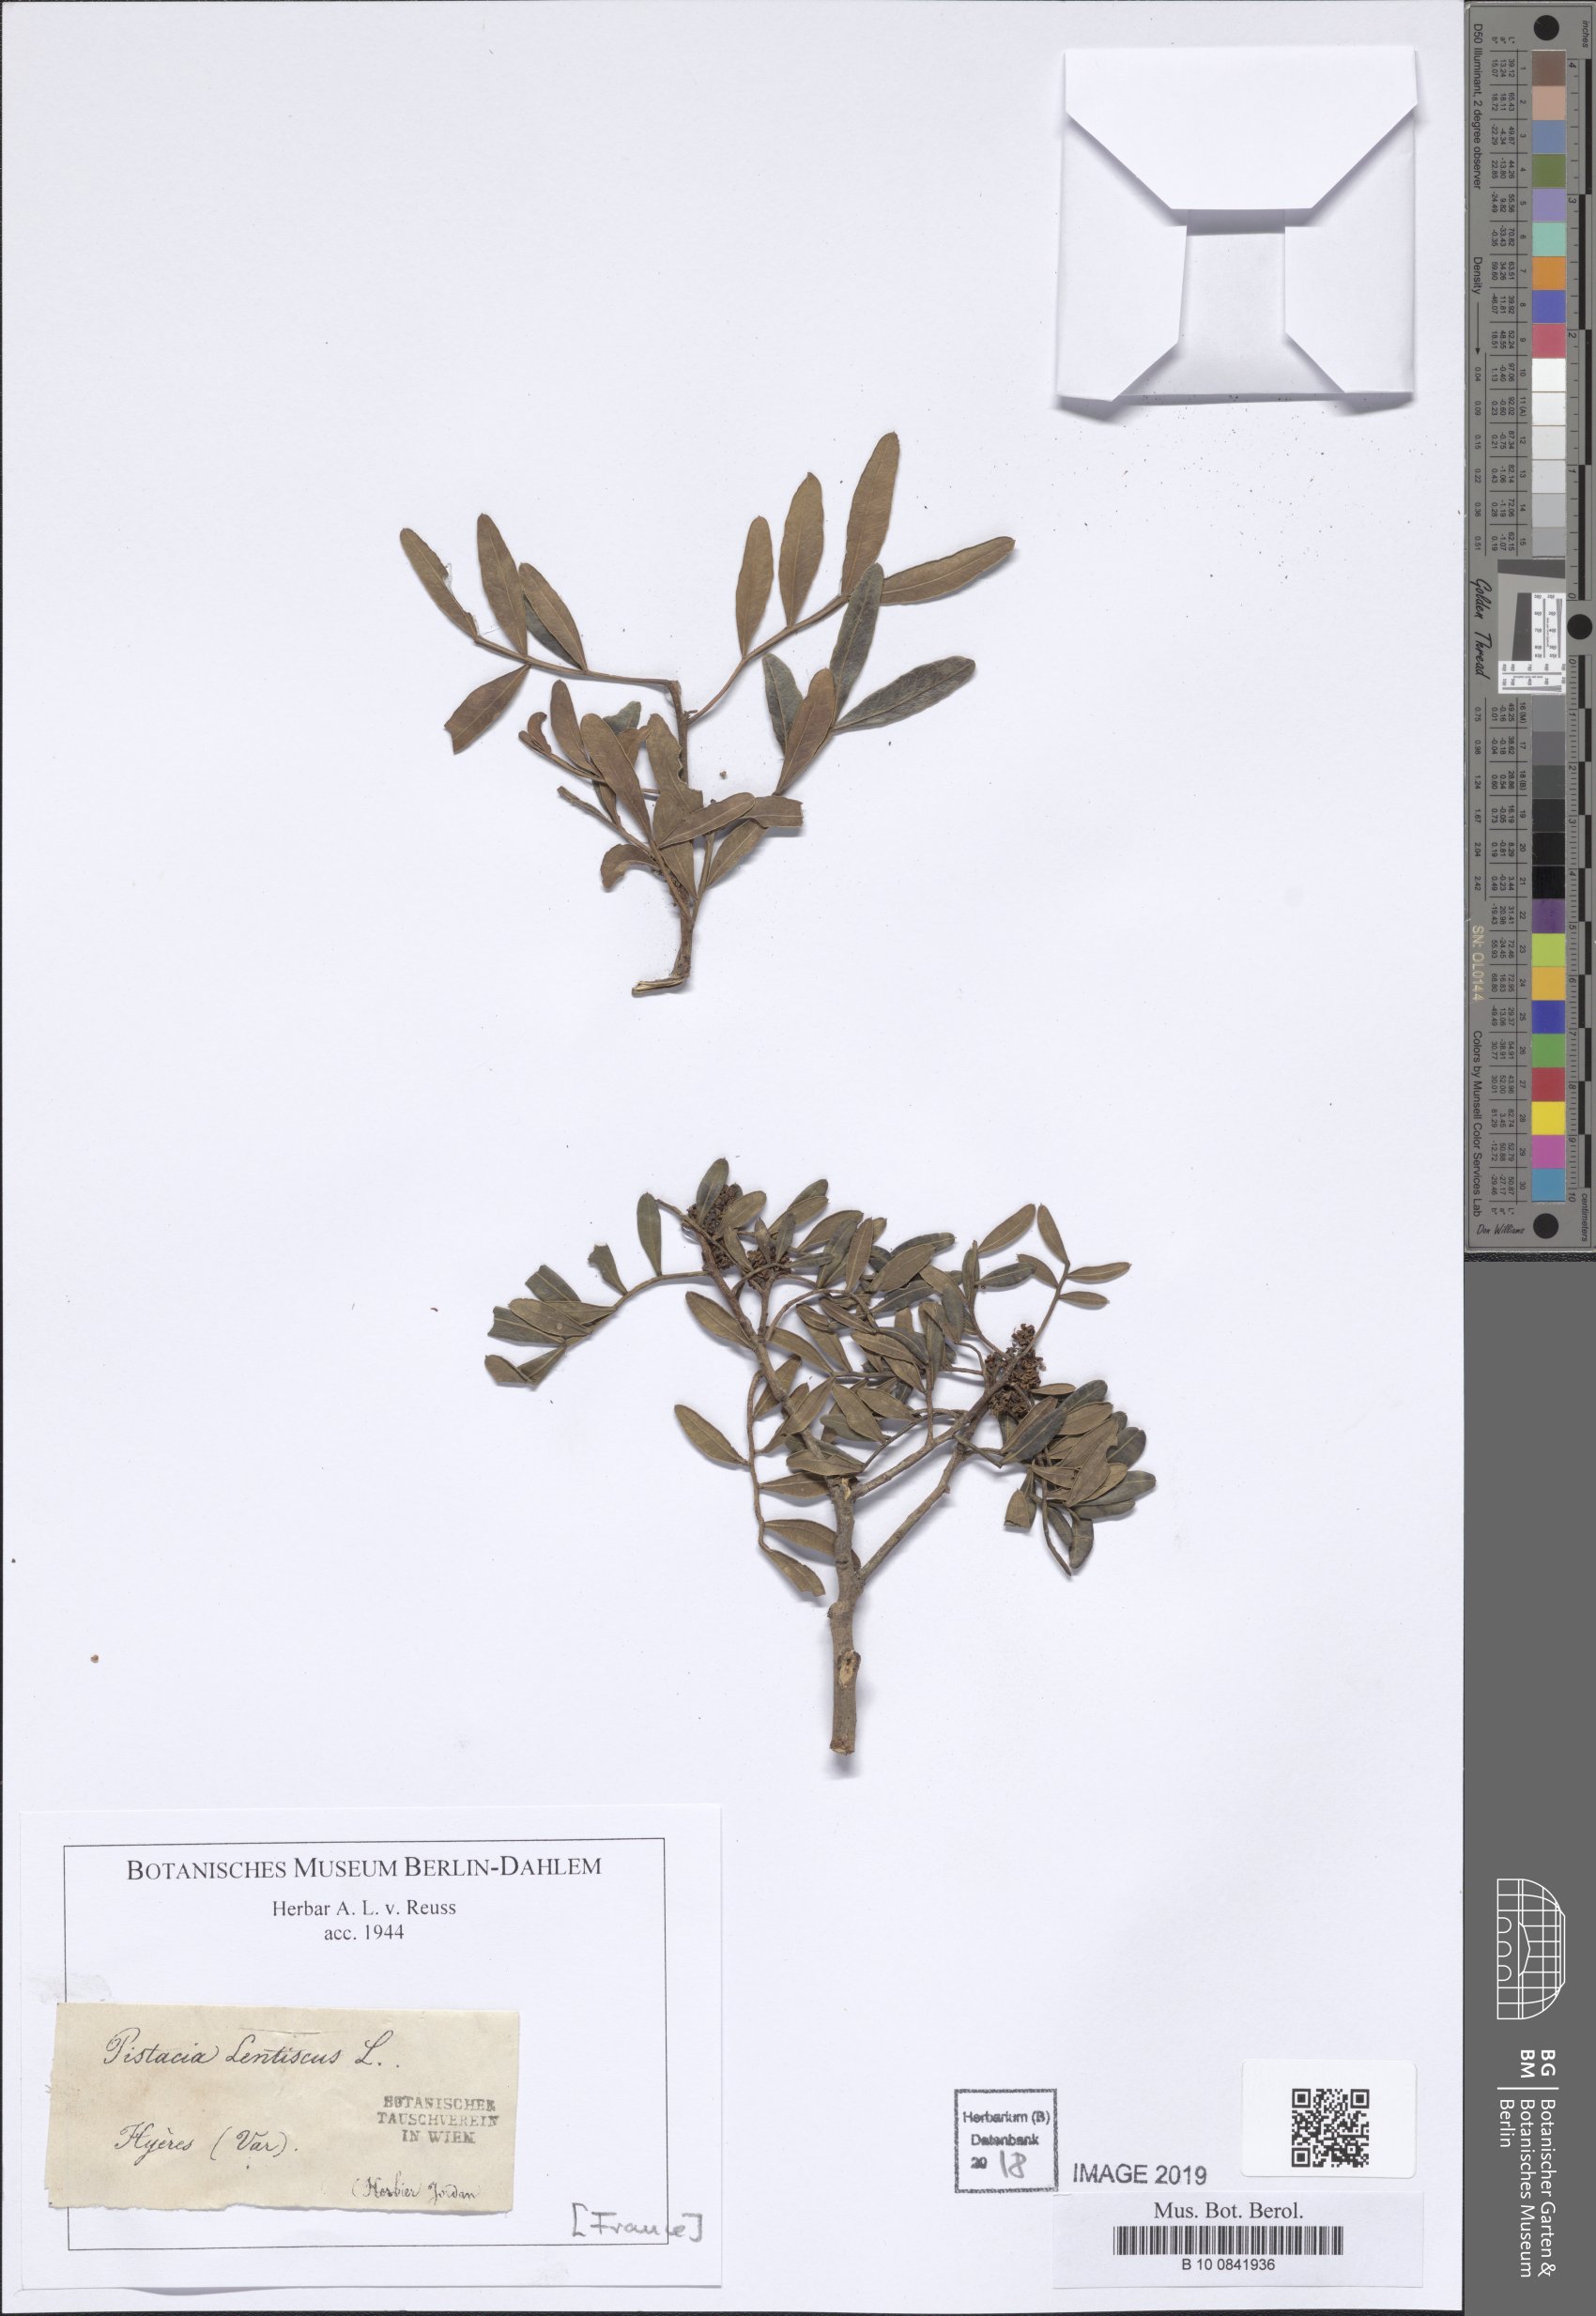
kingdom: Plantae
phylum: Tracheophyta
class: Magnoliopsida
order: Sapindales
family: Anacardiaceae
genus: Pistacia
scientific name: Pistacia lentiscus
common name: Lentisk
